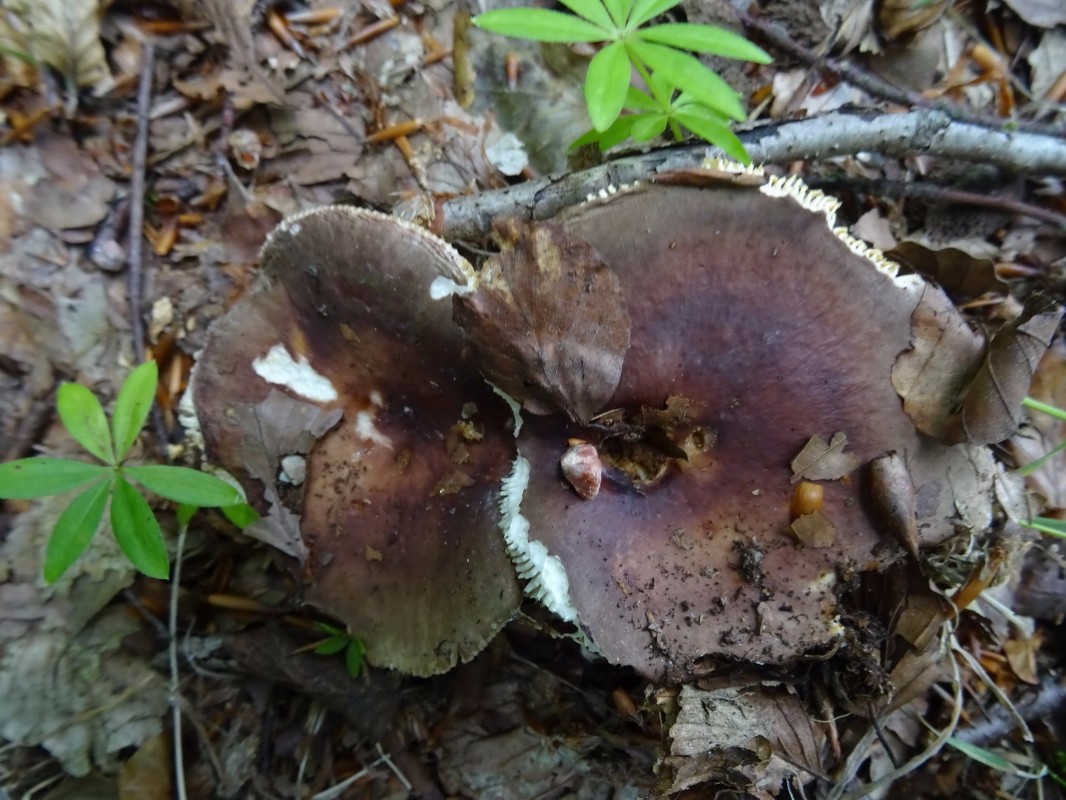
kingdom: Fungi
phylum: Basidiomycota
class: Agaricomycetes
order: Russulales
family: Russulaceae
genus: Russula
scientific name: Russula vesca
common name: spiselig skørhat
